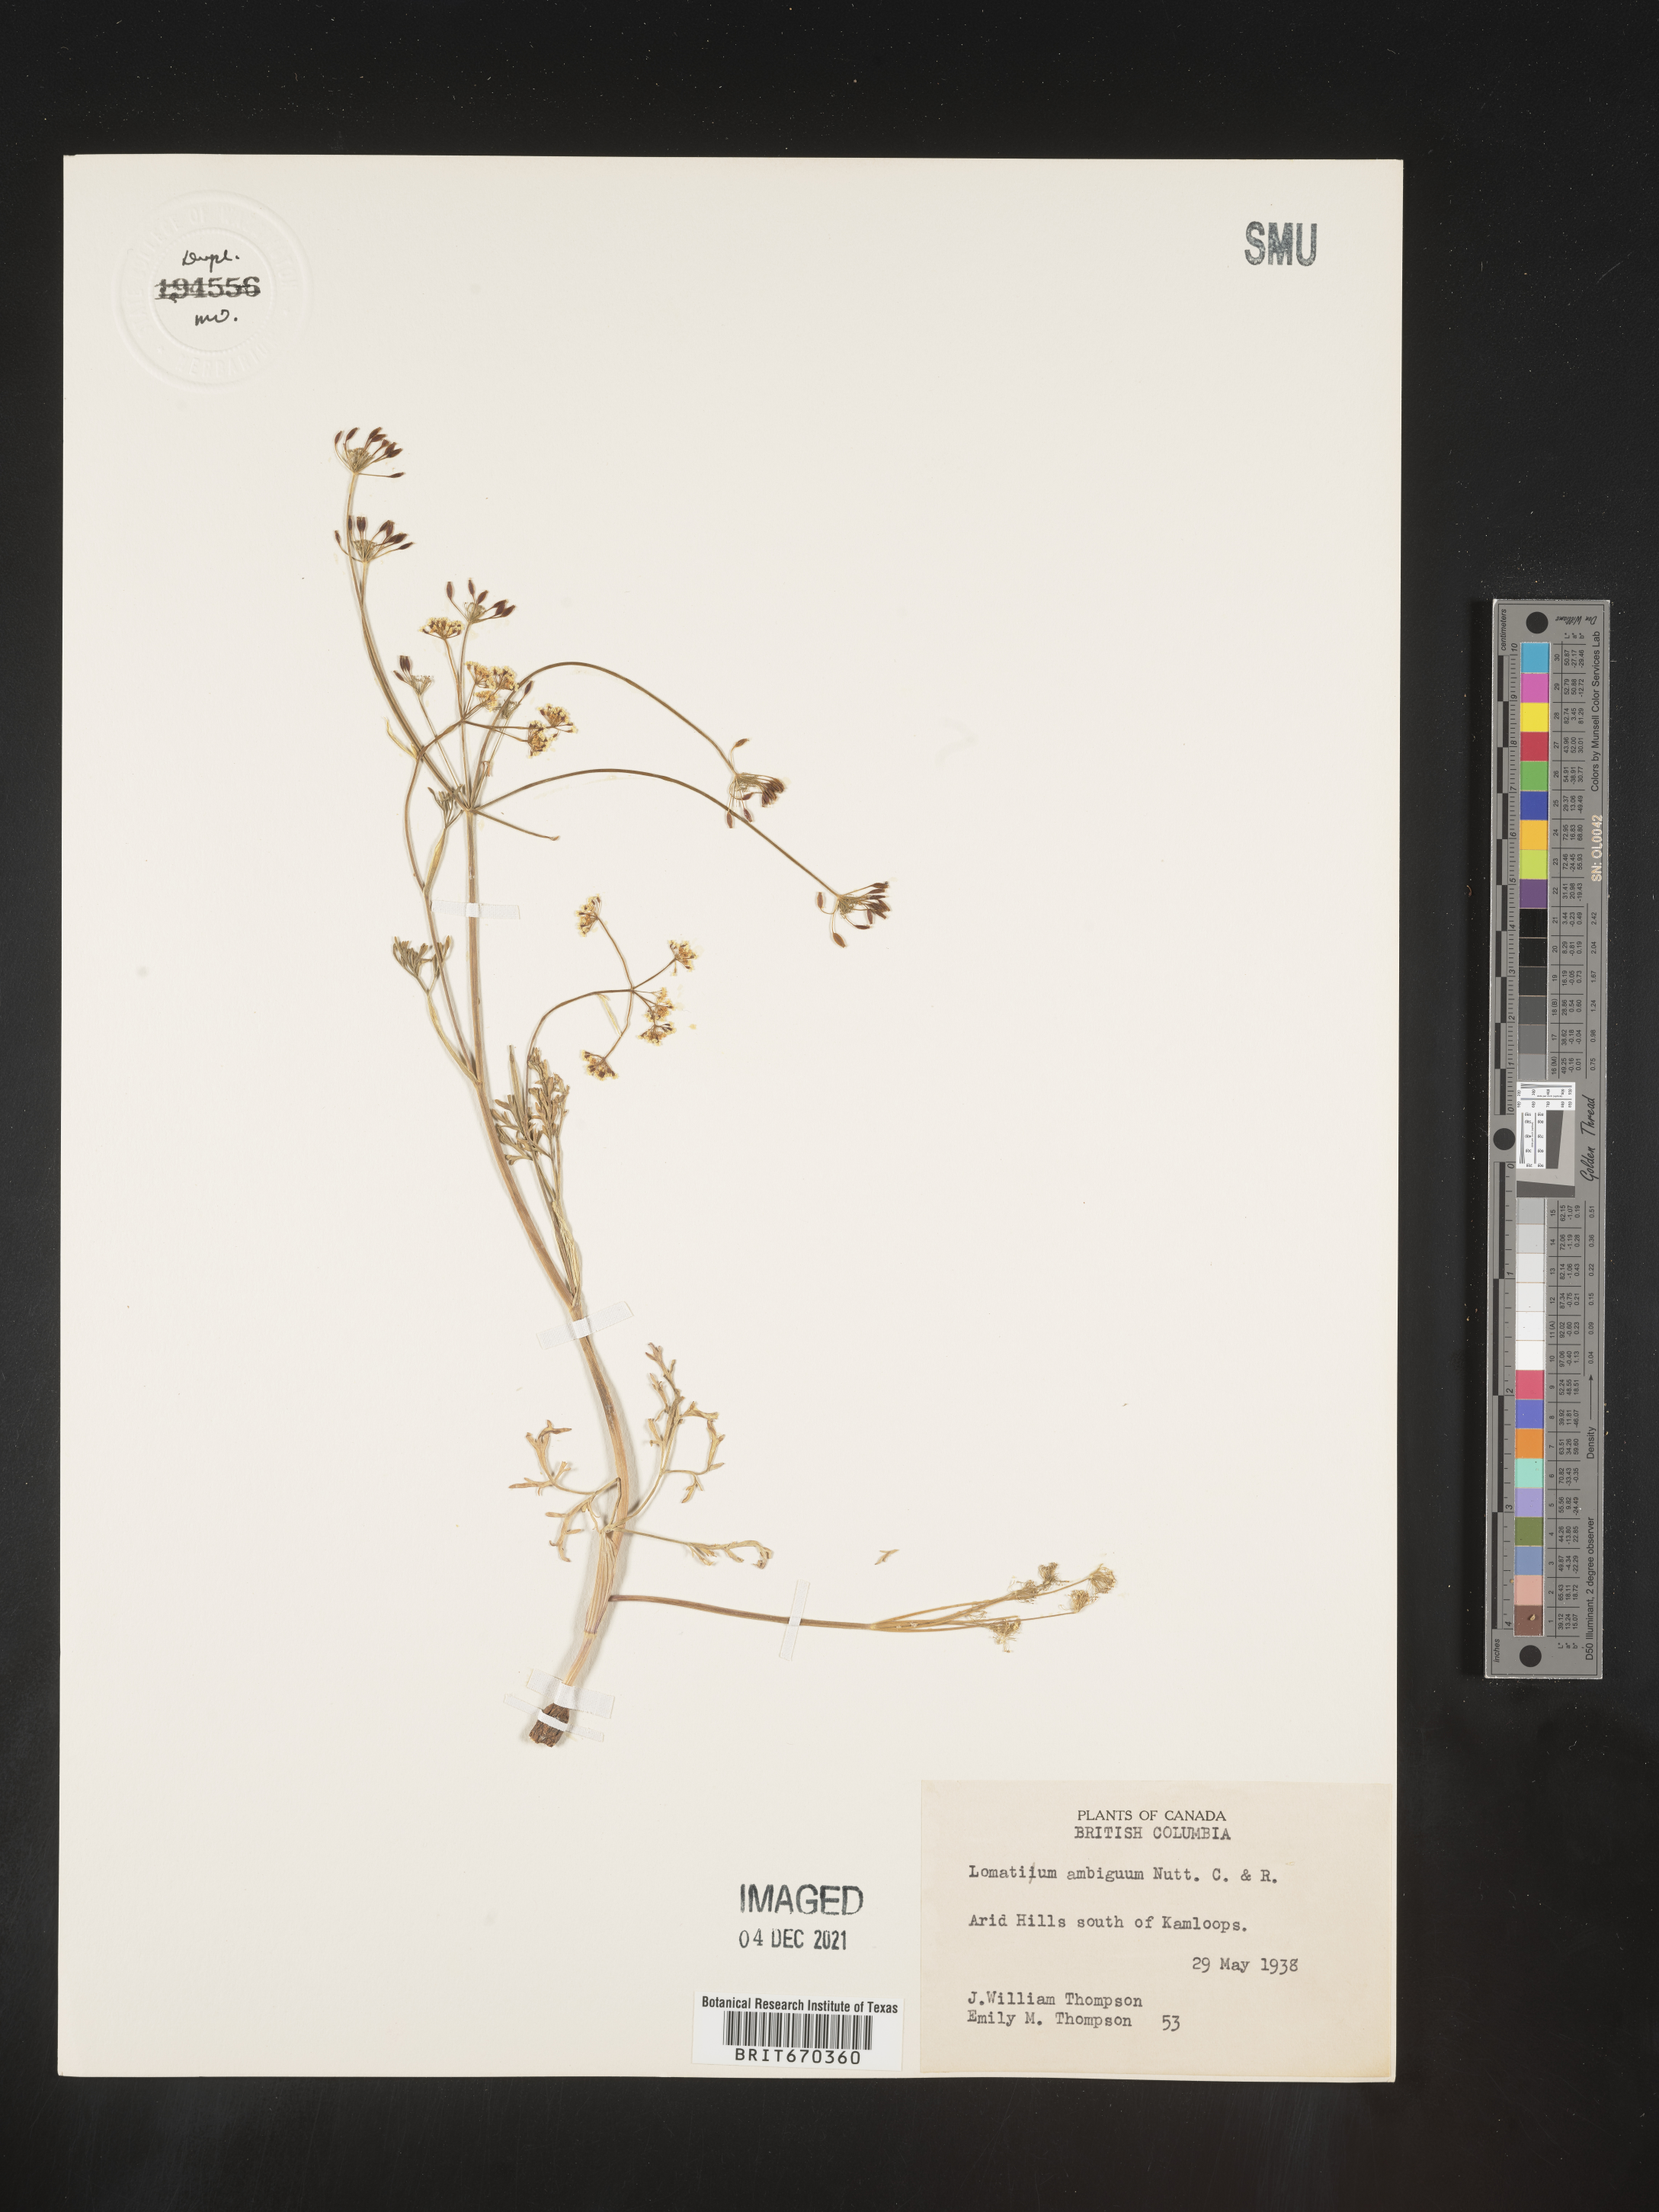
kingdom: Plantae
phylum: Tracheophyta
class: Magnoliopsida
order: Apiales
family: Apiaceae
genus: Lomatium
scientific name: Lomatium ambiguum
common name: Lacy lomatium
